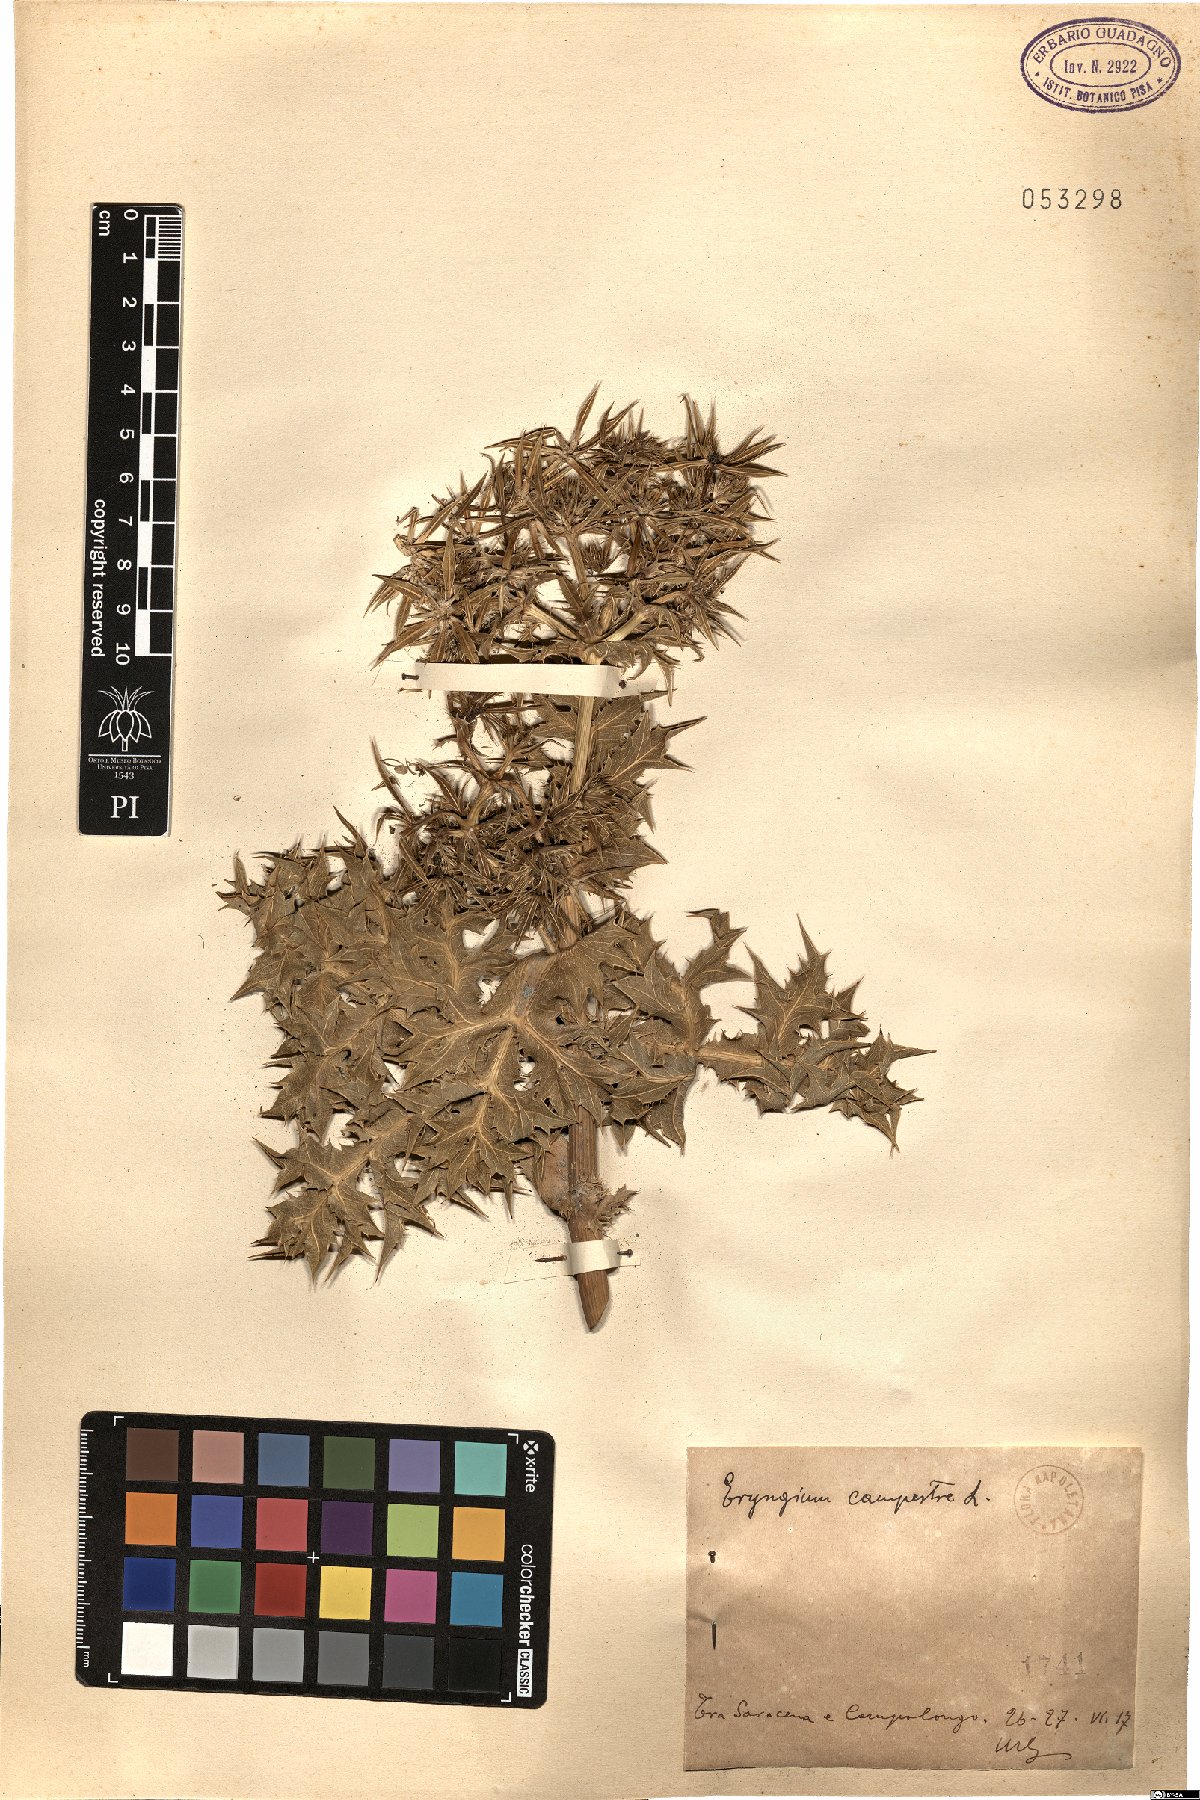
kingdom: Plantae
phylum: Tracheophyta
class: Magnoliopsida
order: Apiales
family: Apiaceae
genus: Eryngium
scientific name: Eryngium campestre
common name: Field eryngo
